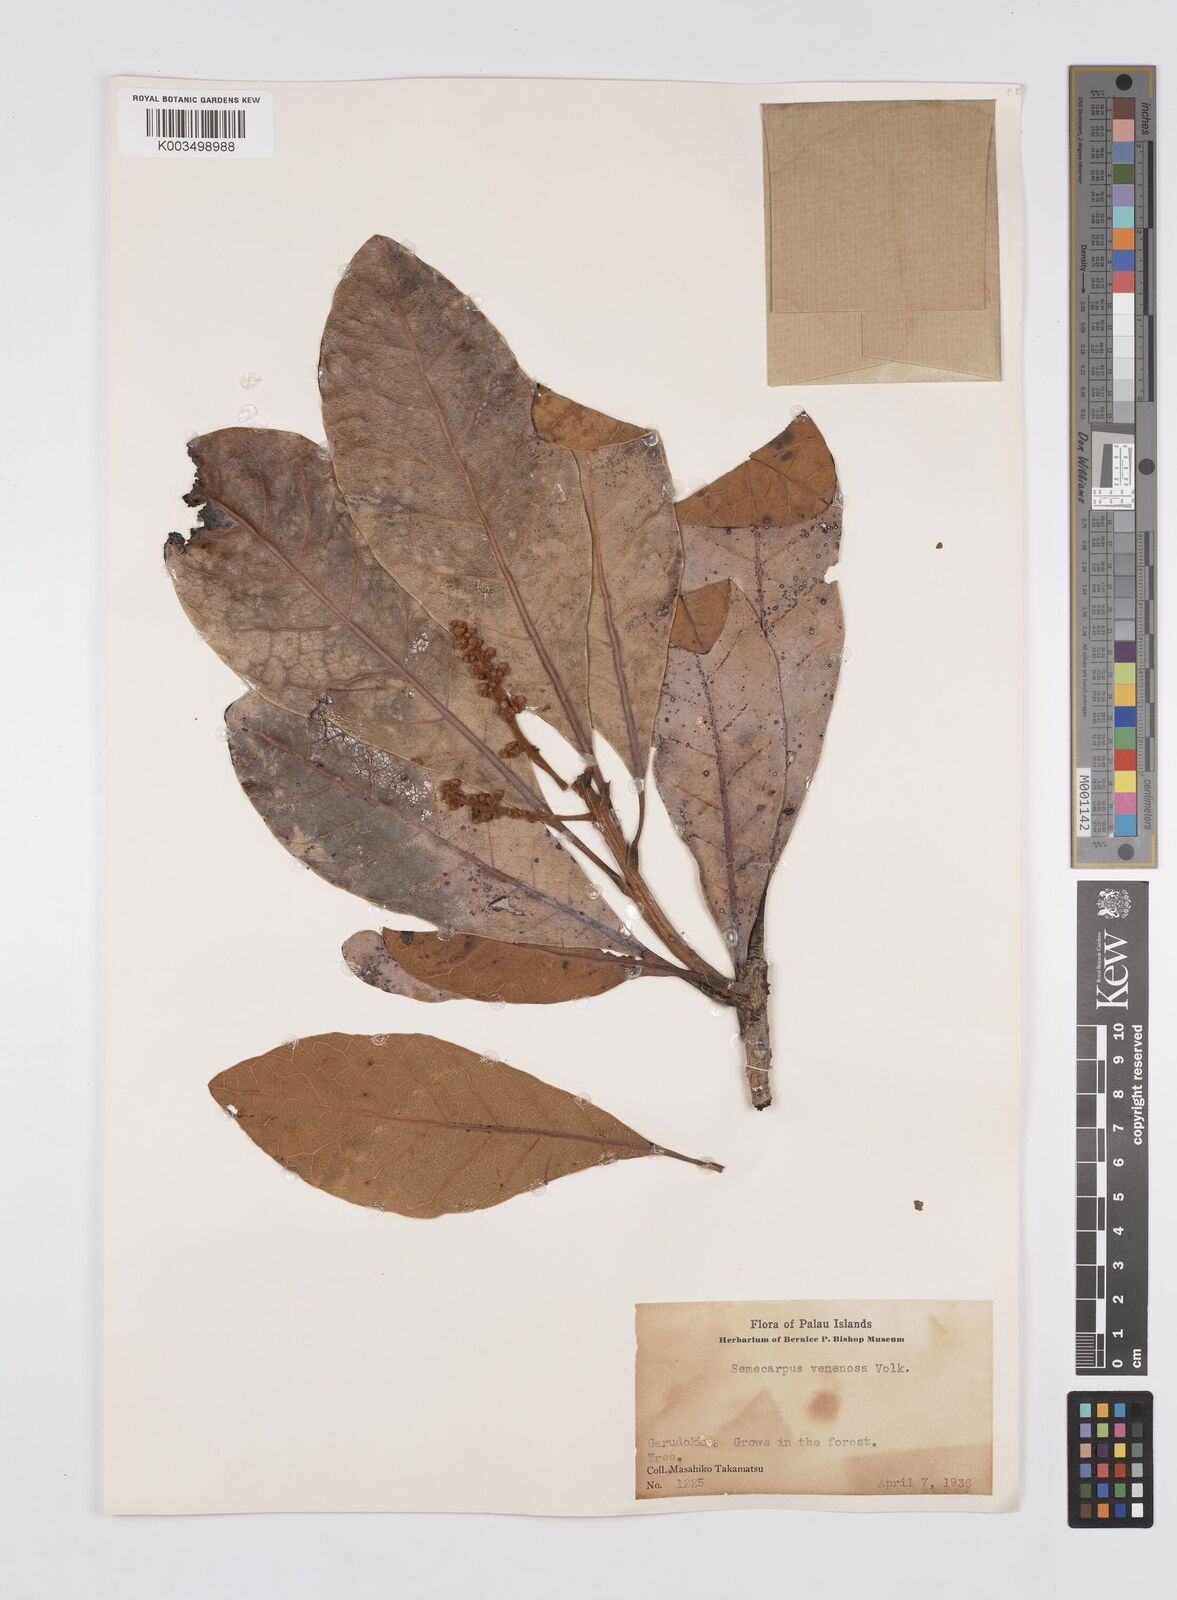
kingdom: Plantae
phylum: Tracheophyta
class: Magnoliopsida
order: Sapindales
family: Anacardiaceae
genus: Campnosperma
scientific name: Campnosperma
